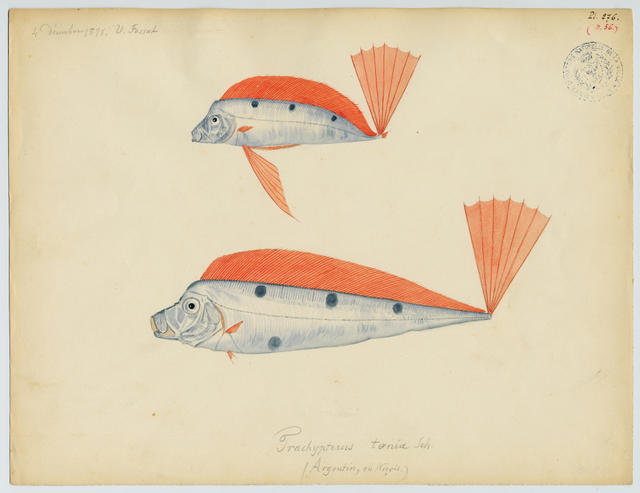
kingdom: Animalia
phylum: Chordata
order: Lampriformes
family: Trachipteridae
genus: Trachipterus
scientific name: Trachipterus trachypterus
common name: Dealfish
